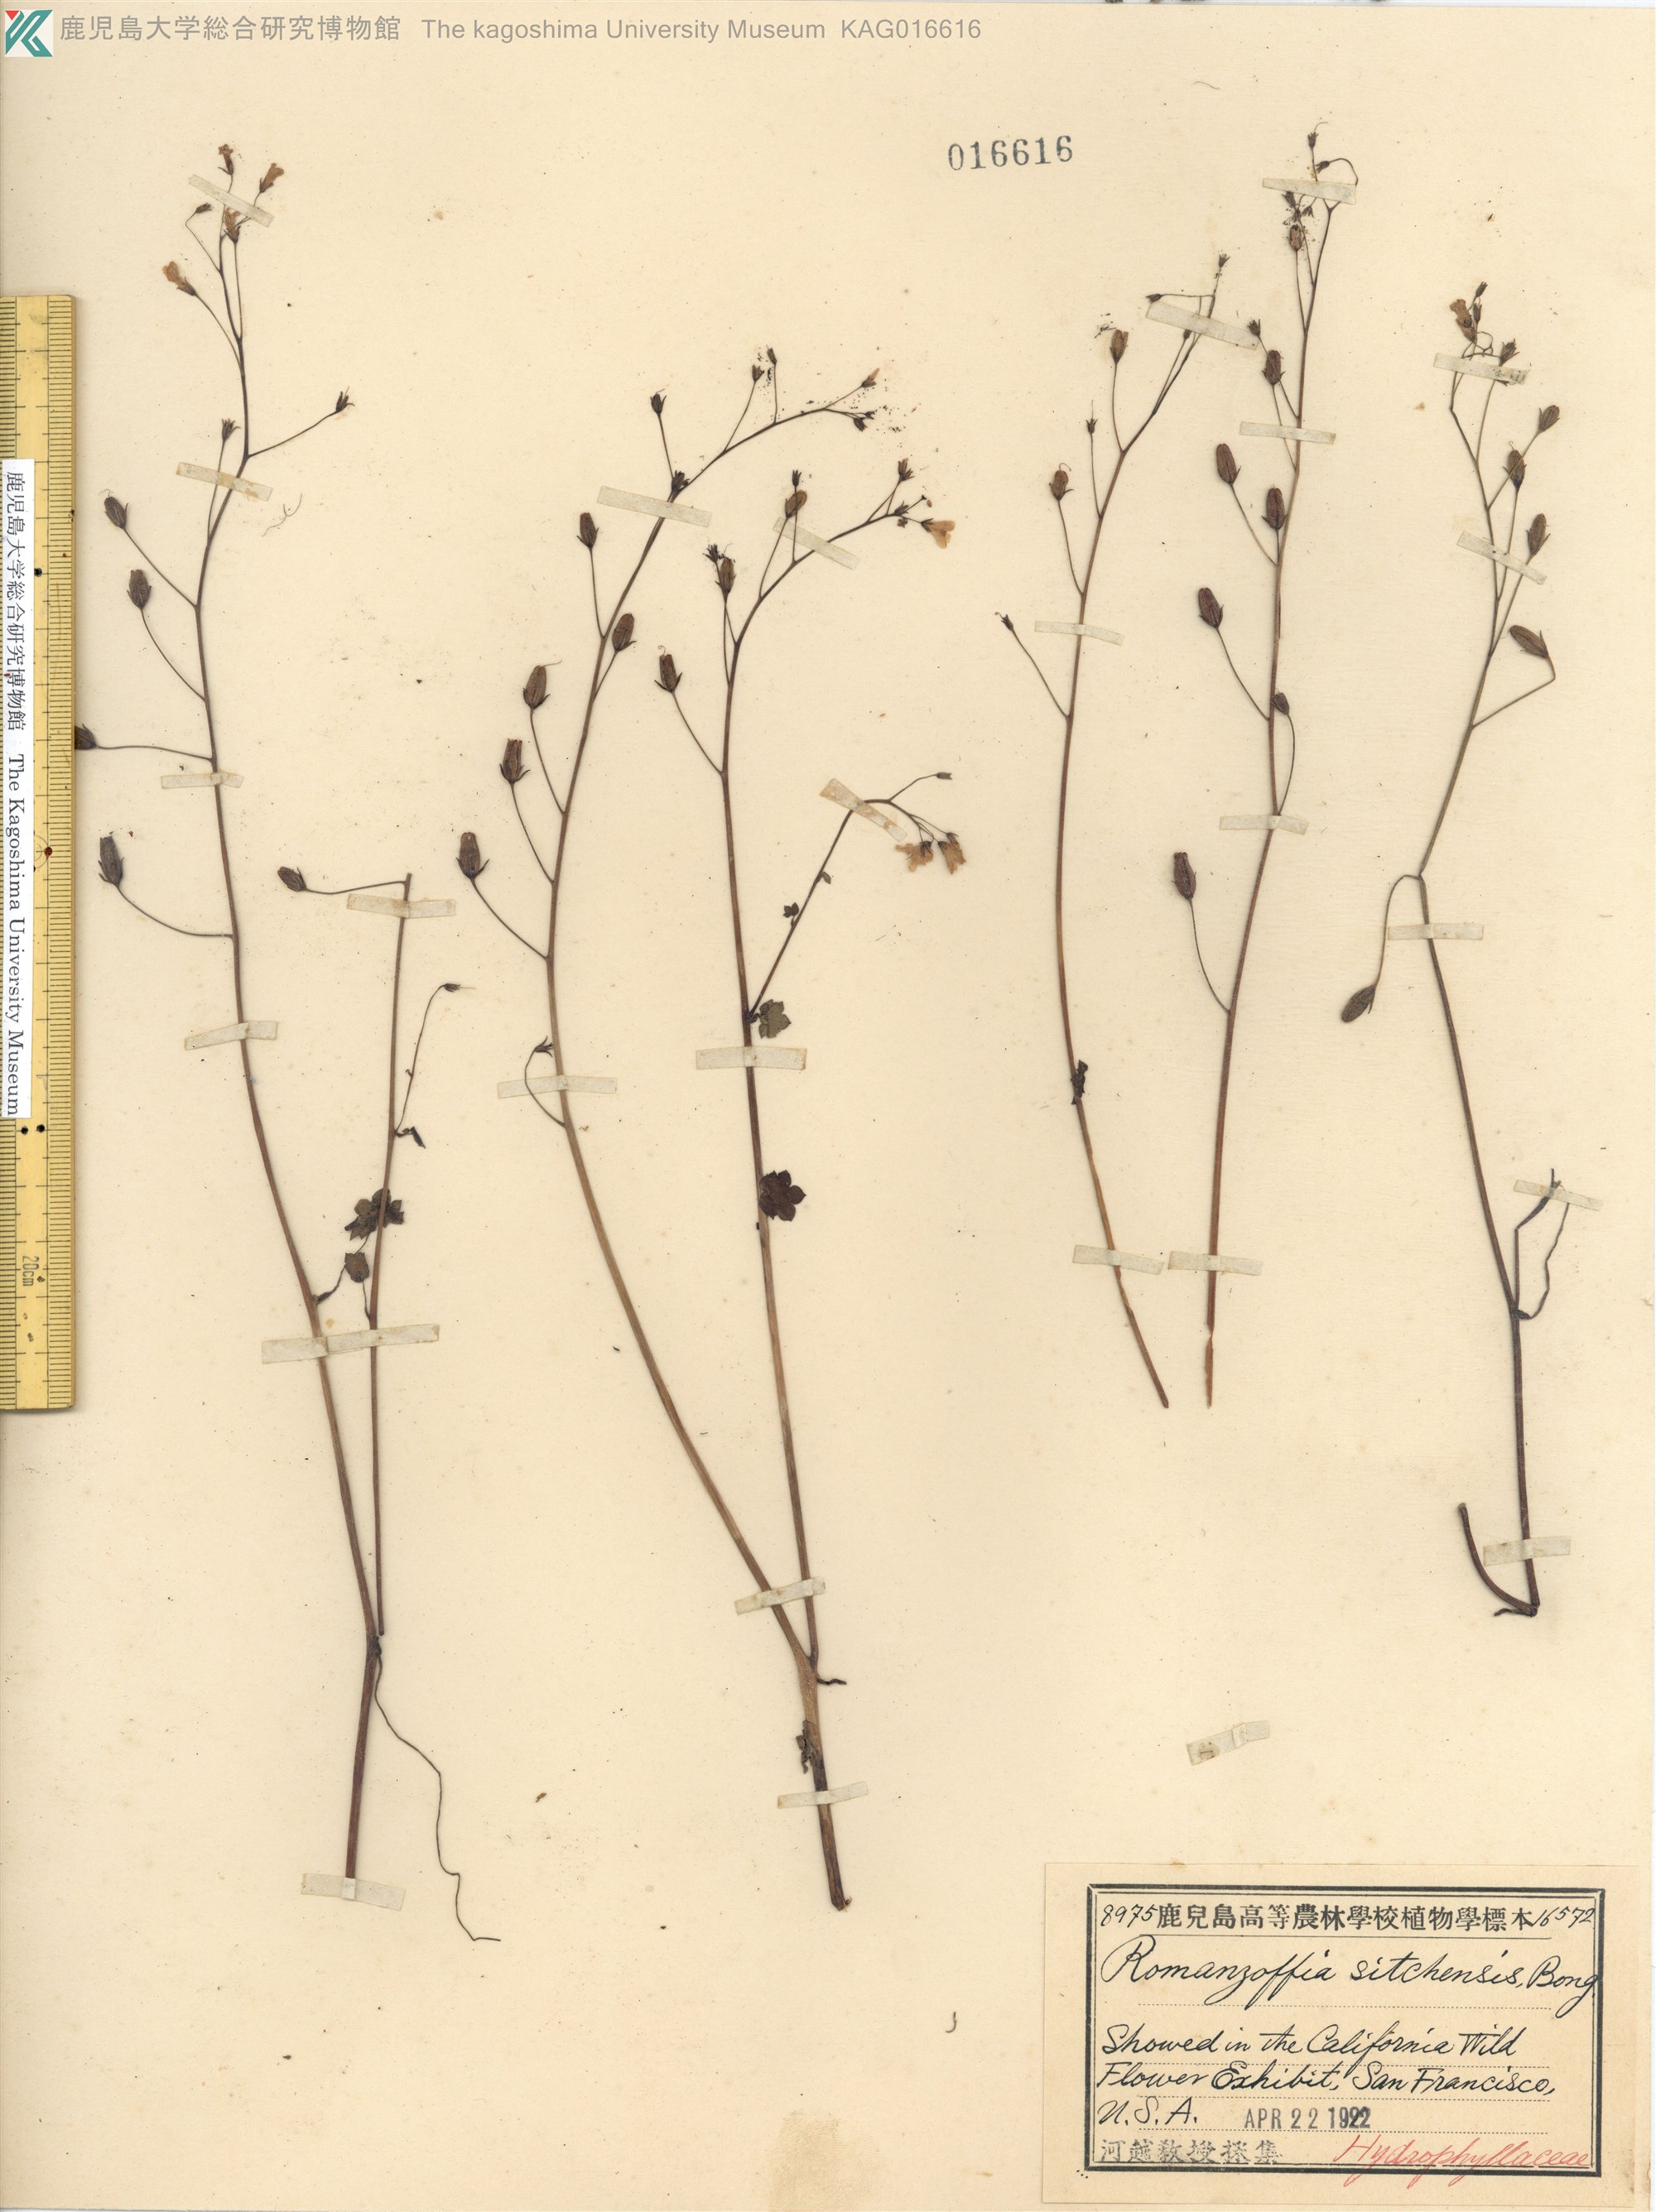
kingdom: Plantae
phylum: Tracheophyta
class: Magnoliopsida
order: Boraginales
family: Hydrophyllaceae
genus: Romanzoffia
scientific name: Romanzoffia sitchensis
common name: Sitka mistmaid
